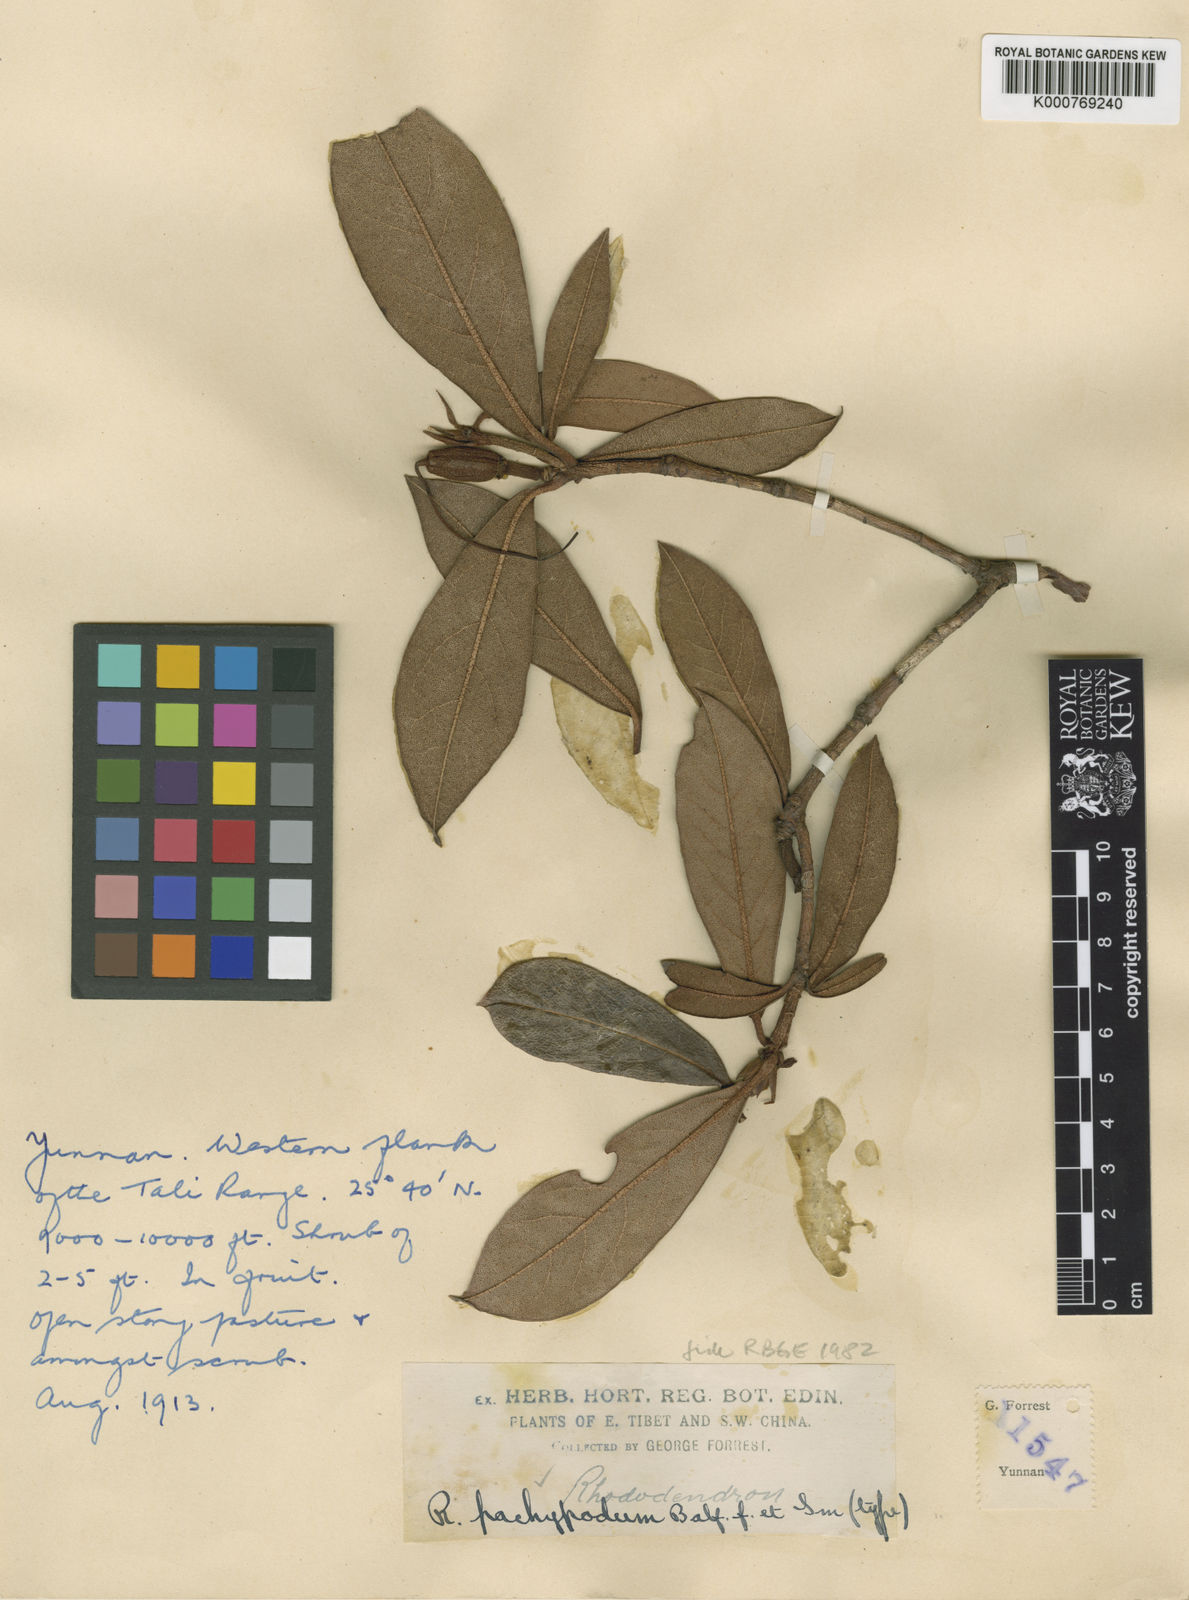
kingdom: Plantae
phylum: Tracheophyta
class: Magnoliopsida
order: Ericales
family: Ericaceae
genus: Rhododendron
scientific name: Rhododendron pachypodum
